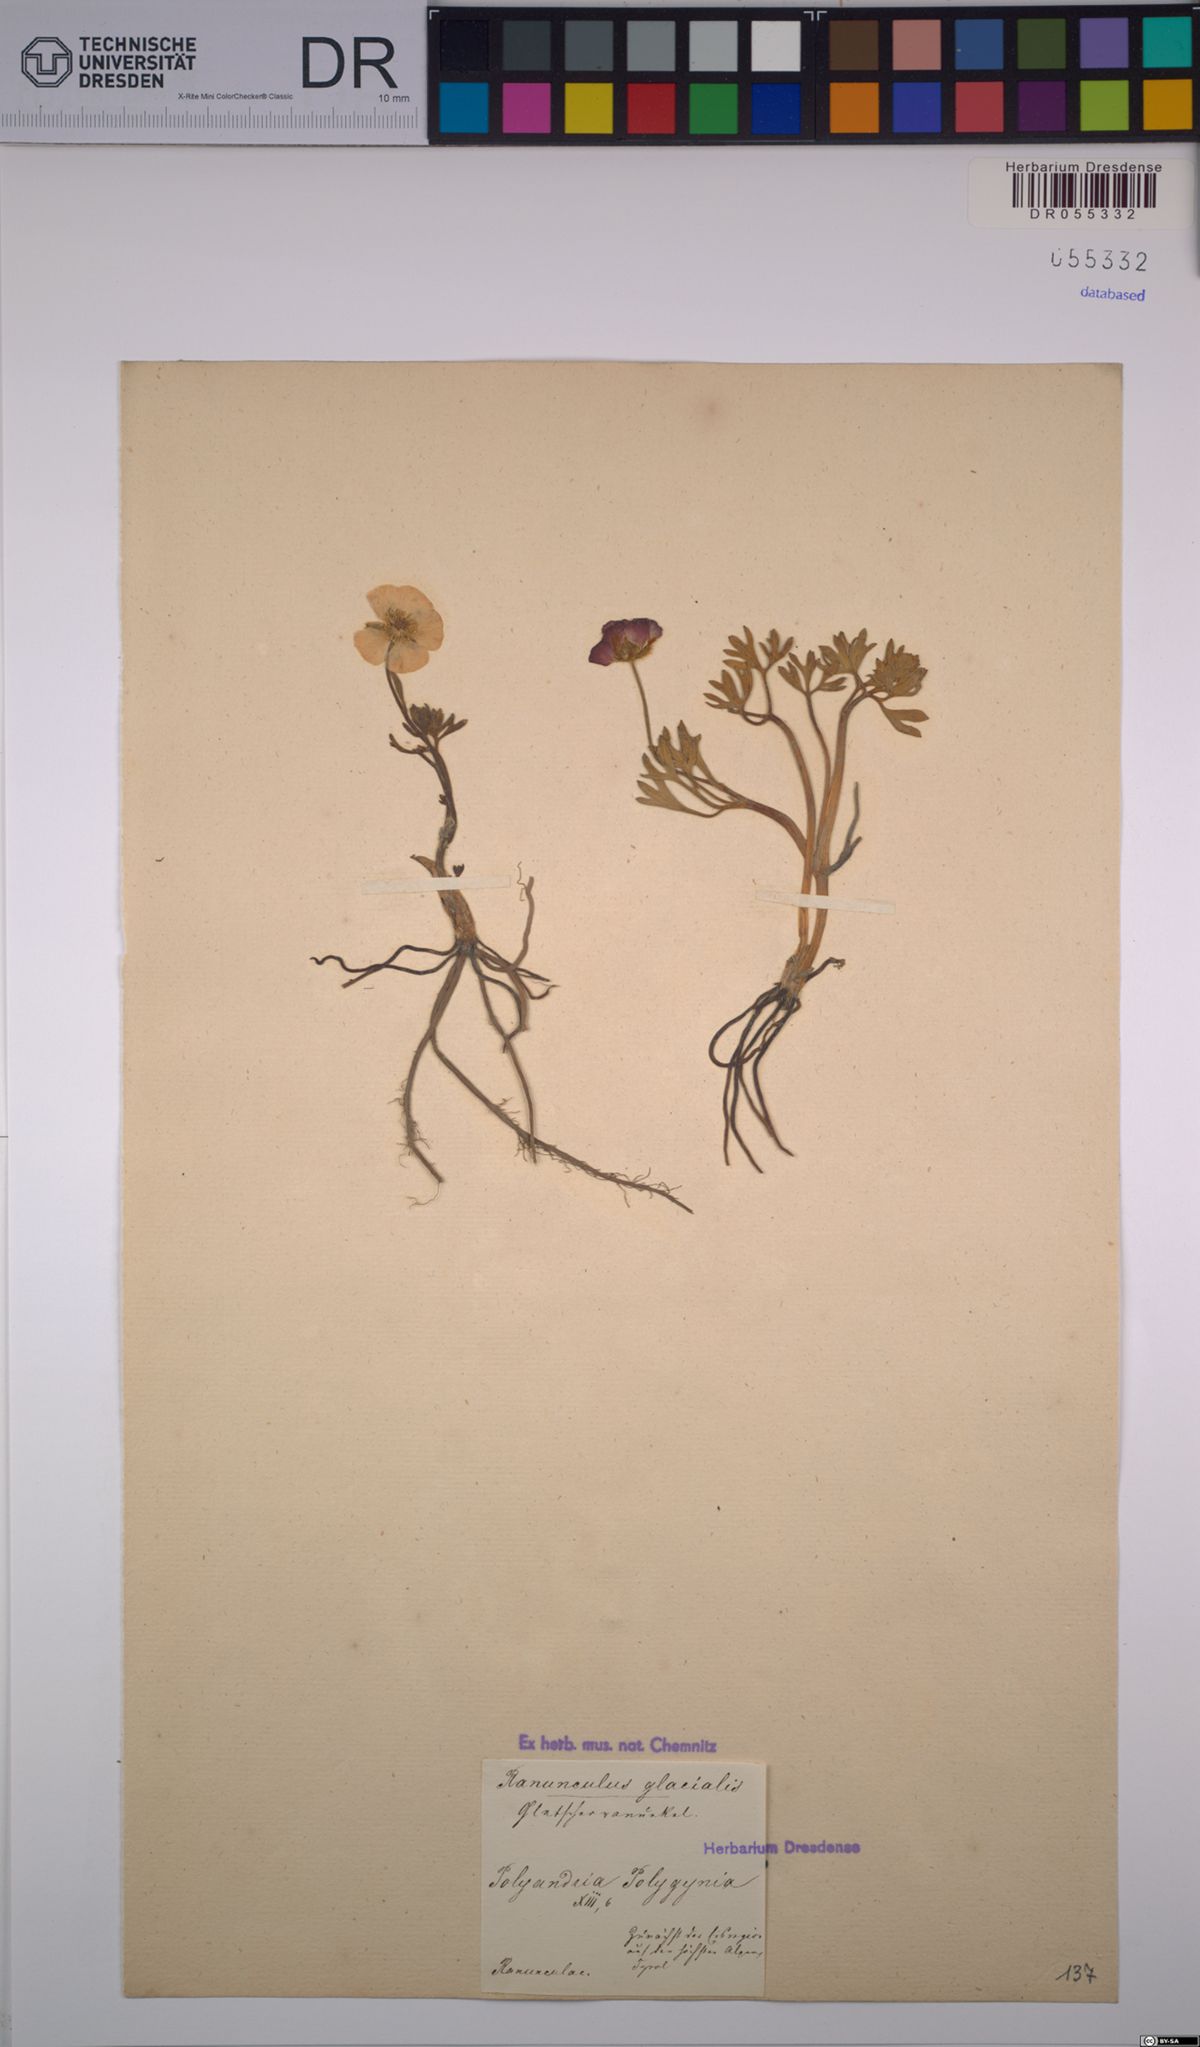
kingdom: Plantae
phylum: Tracheophyta
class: Magnoliopsida
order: Ranunculales
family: Ranunculaceae
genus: Ranunculus
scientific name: Ranunculus glacialis
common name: Glacier buttercup
